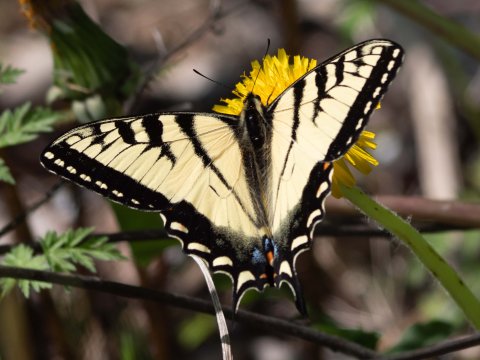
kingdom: Animalia
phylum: Arthropoda
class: Insecta
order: Lepidoptera
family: Papilionidae
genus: Pterourus
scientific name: Pterourus
